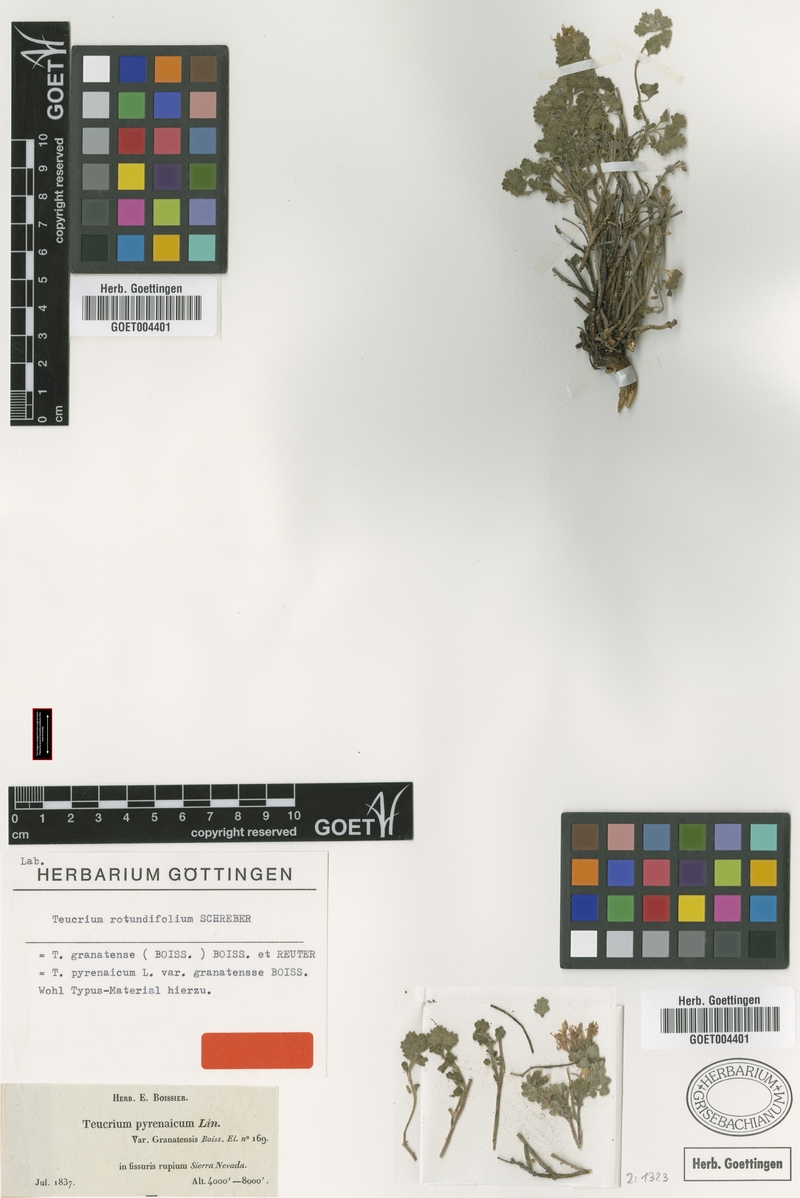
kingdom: Plantae
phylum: Tracheophyta
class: Magnoliopsida
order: Lamiales
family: Lamiaceae
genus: Teucrium
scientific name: Teucrium rotundifolium
